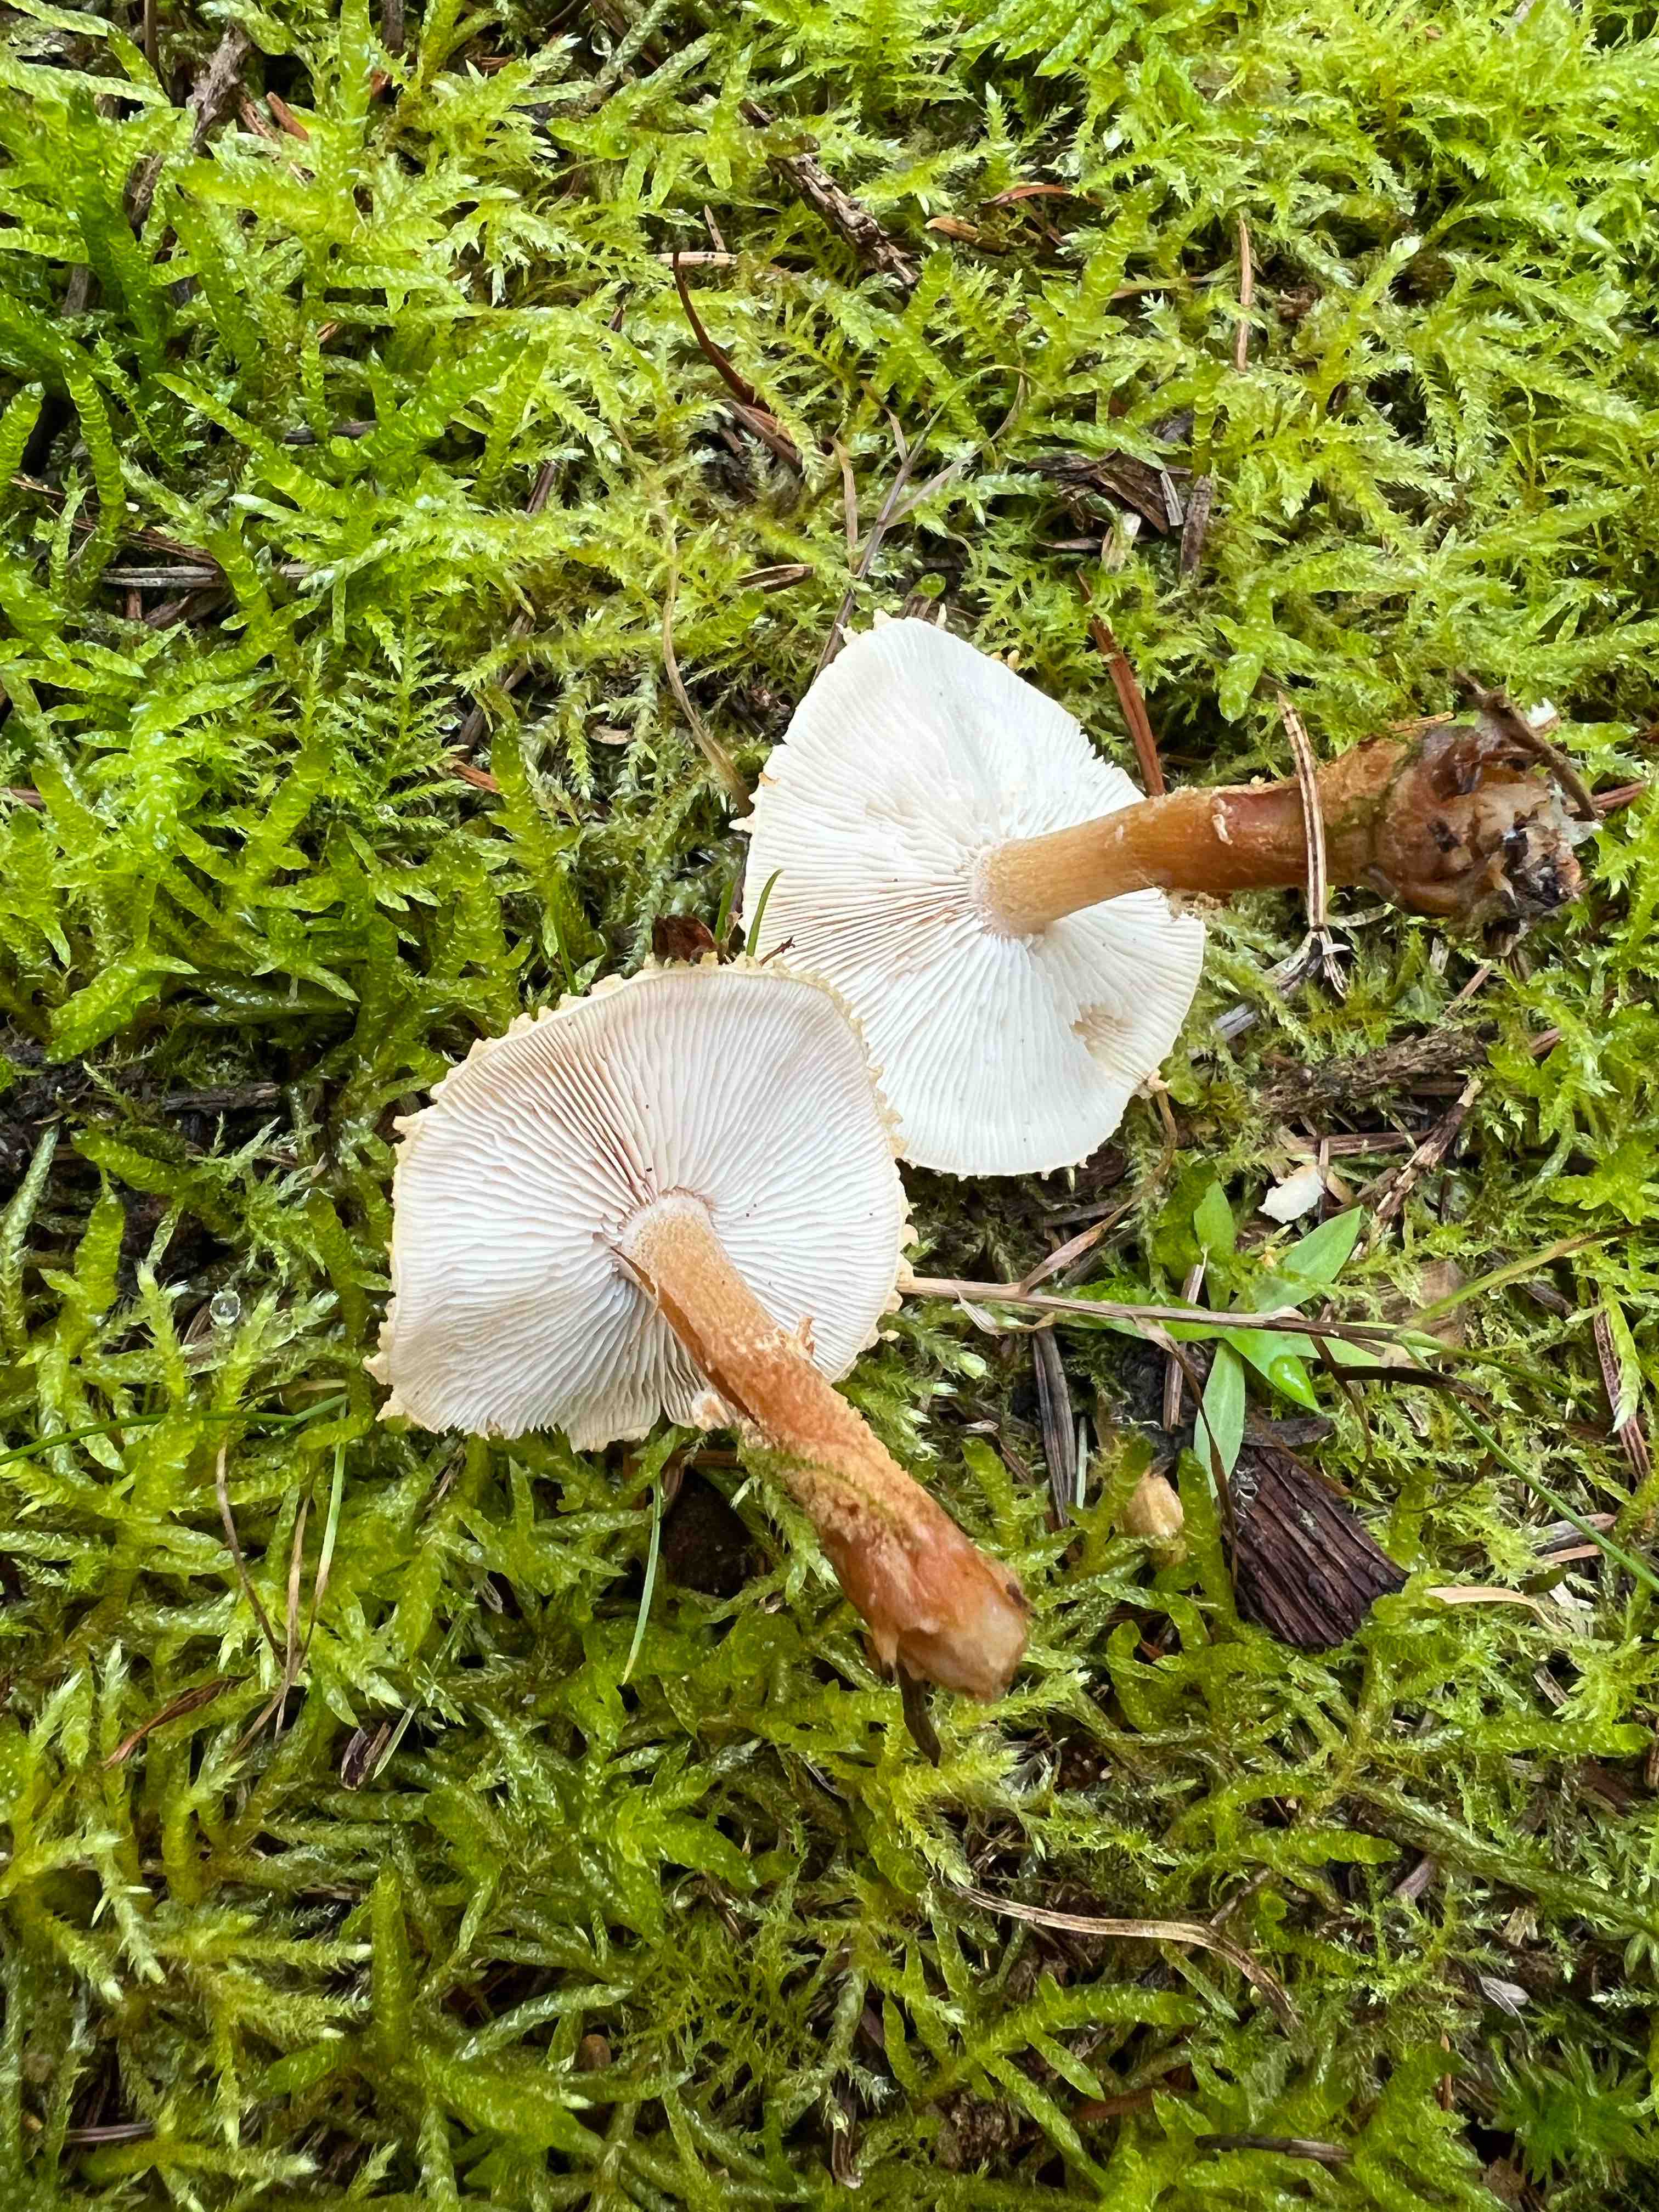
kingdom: Fungi
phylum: Basidiomycota
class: Agaricomycetes
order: Agaricales
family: Tricholomataceae
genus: Cystoderma
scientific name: Cystoderma amianthinum
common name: okkergul grynhat
